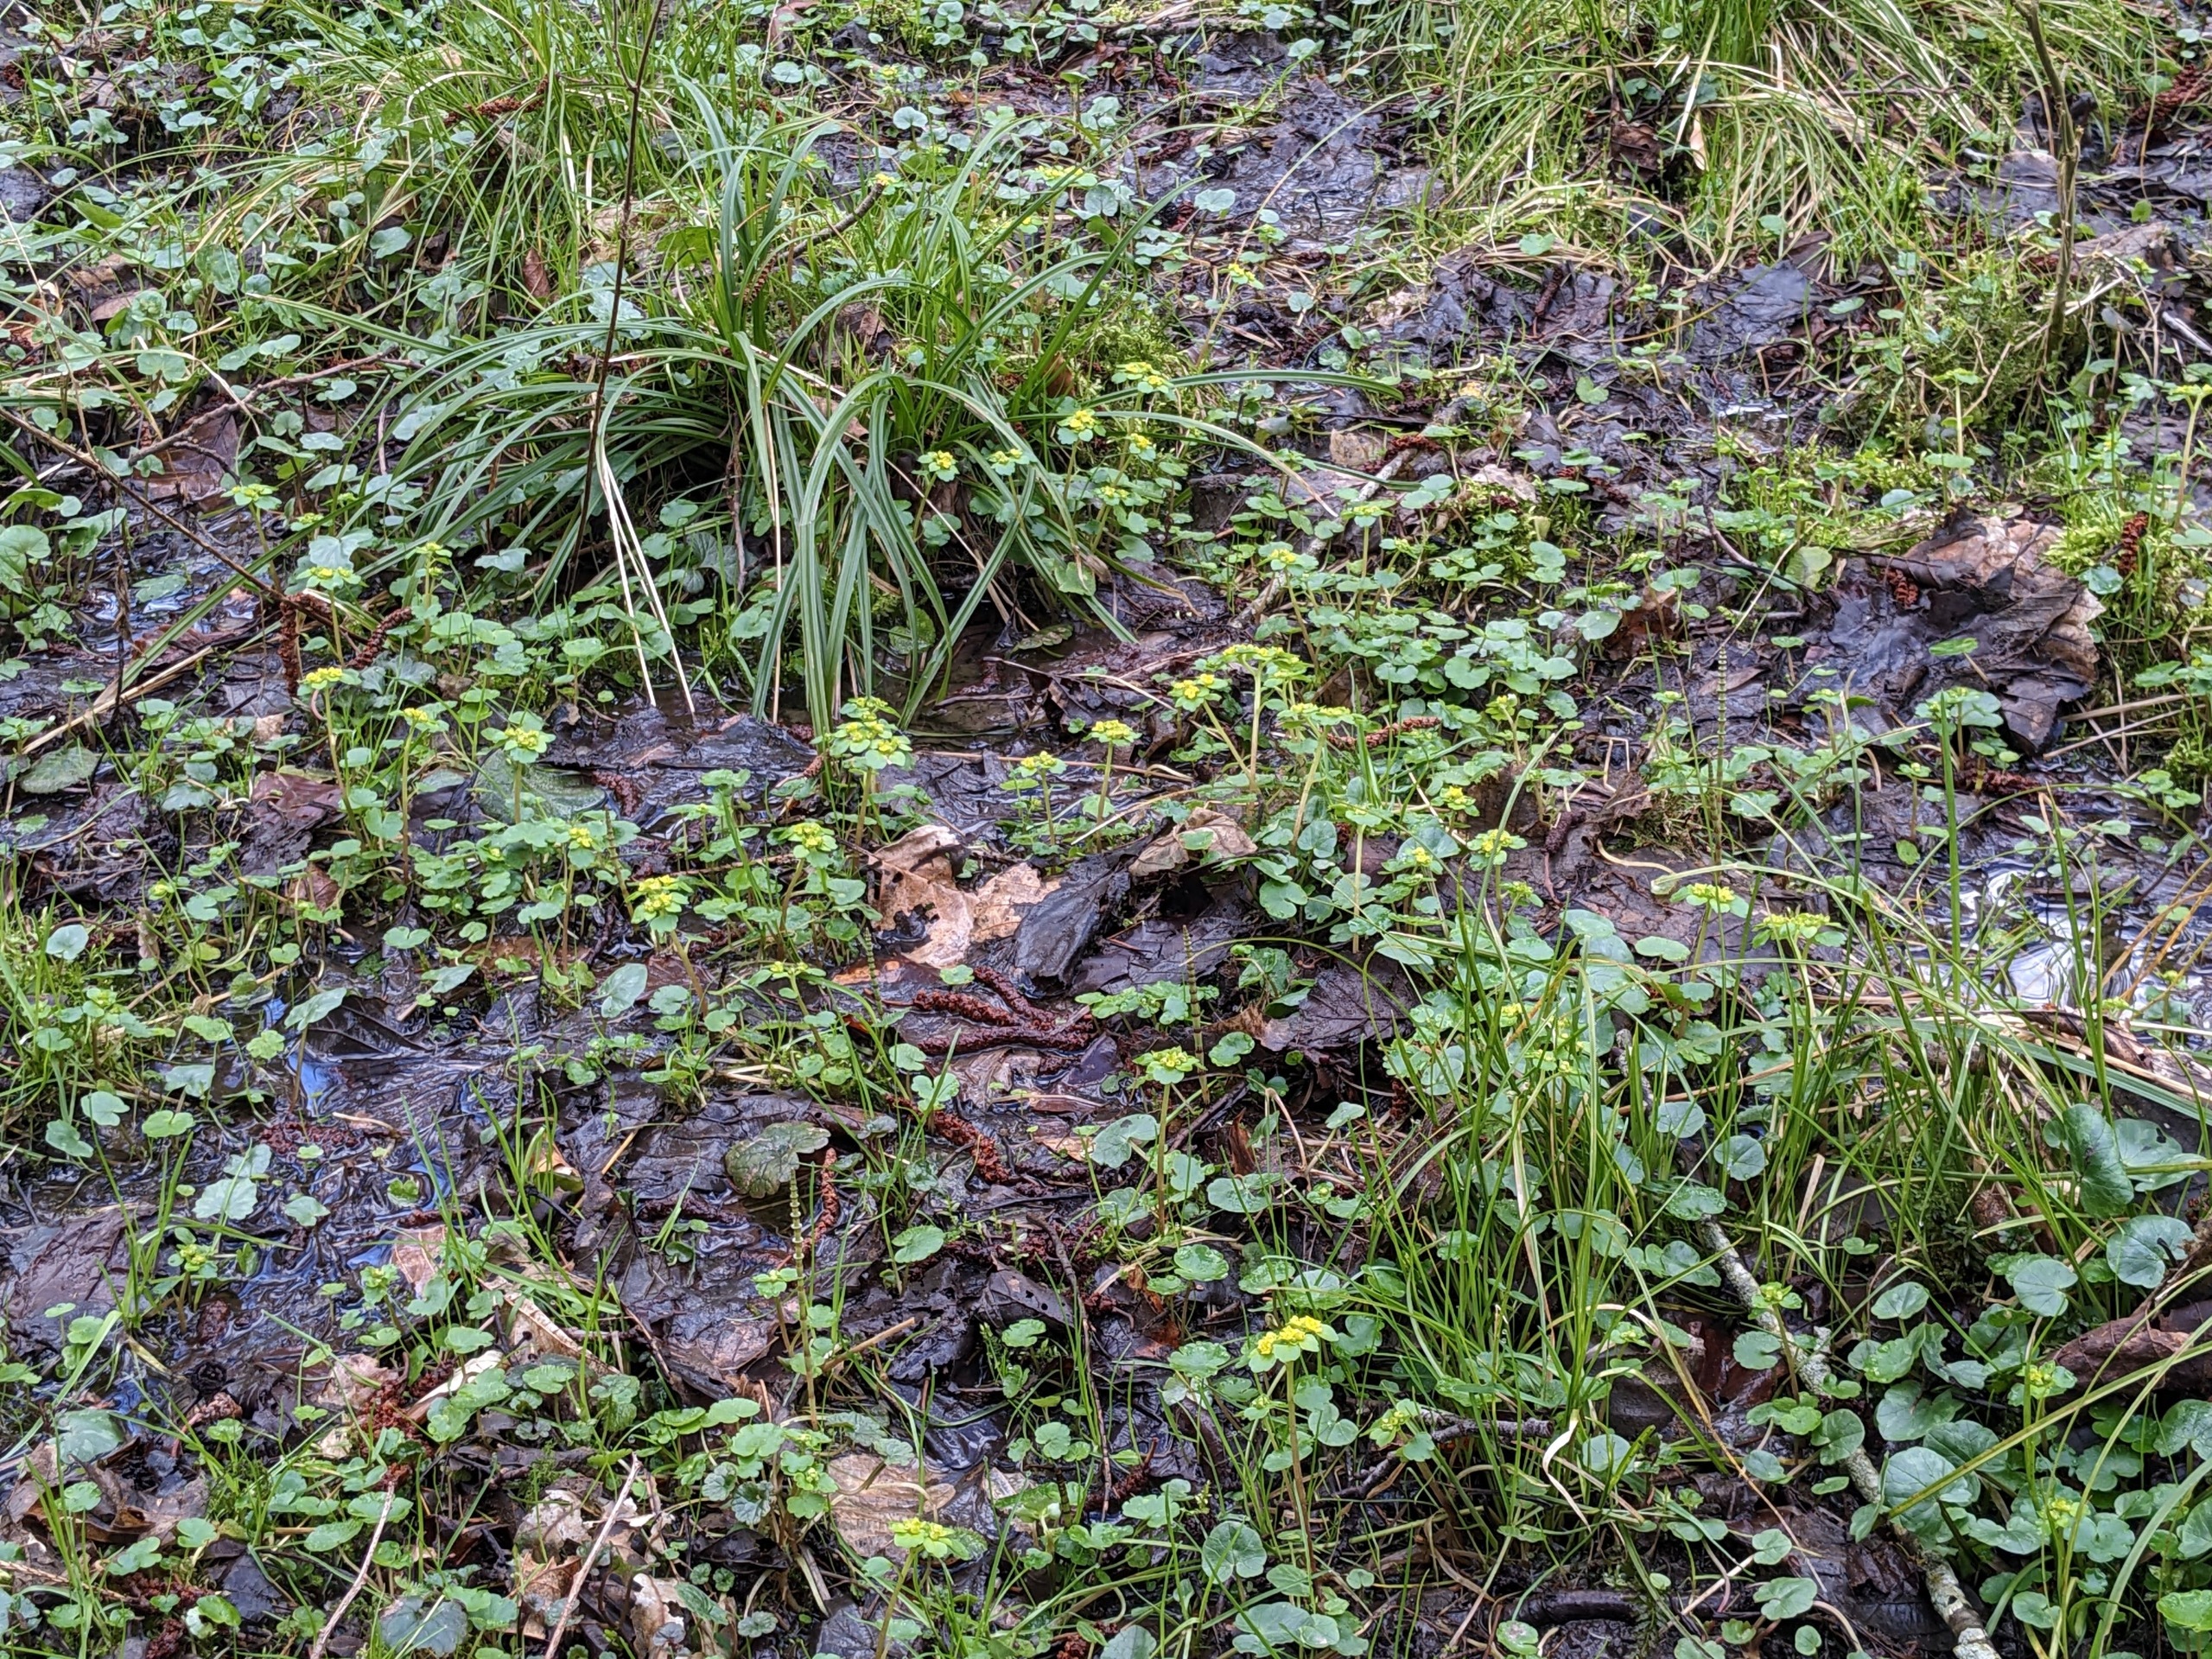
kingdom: Plantae
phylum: Tracheophyta
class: Magnoliopsida
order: Saxifragales
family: Saxifragaceae
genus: Chrysosplenium
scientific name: Chrysosplenium alternifolium
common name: Almindelig milturt
